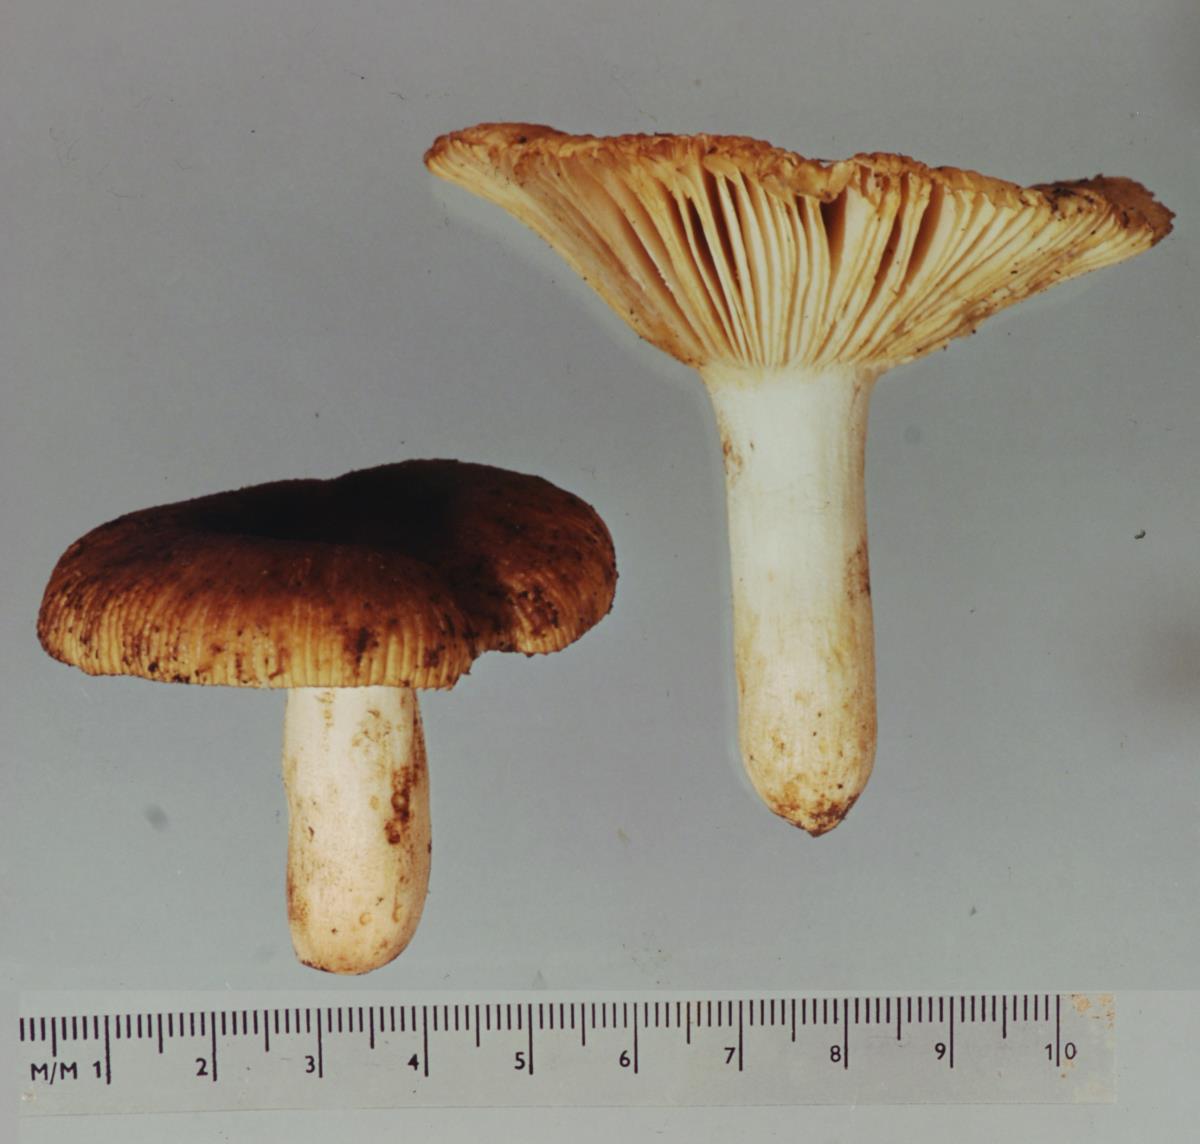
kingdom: Fungi
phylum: Basidiomycota
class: Agaricomycetes
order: Russulales
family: Russulaceae
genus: Russula
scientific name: Russula novae-zelandiae
